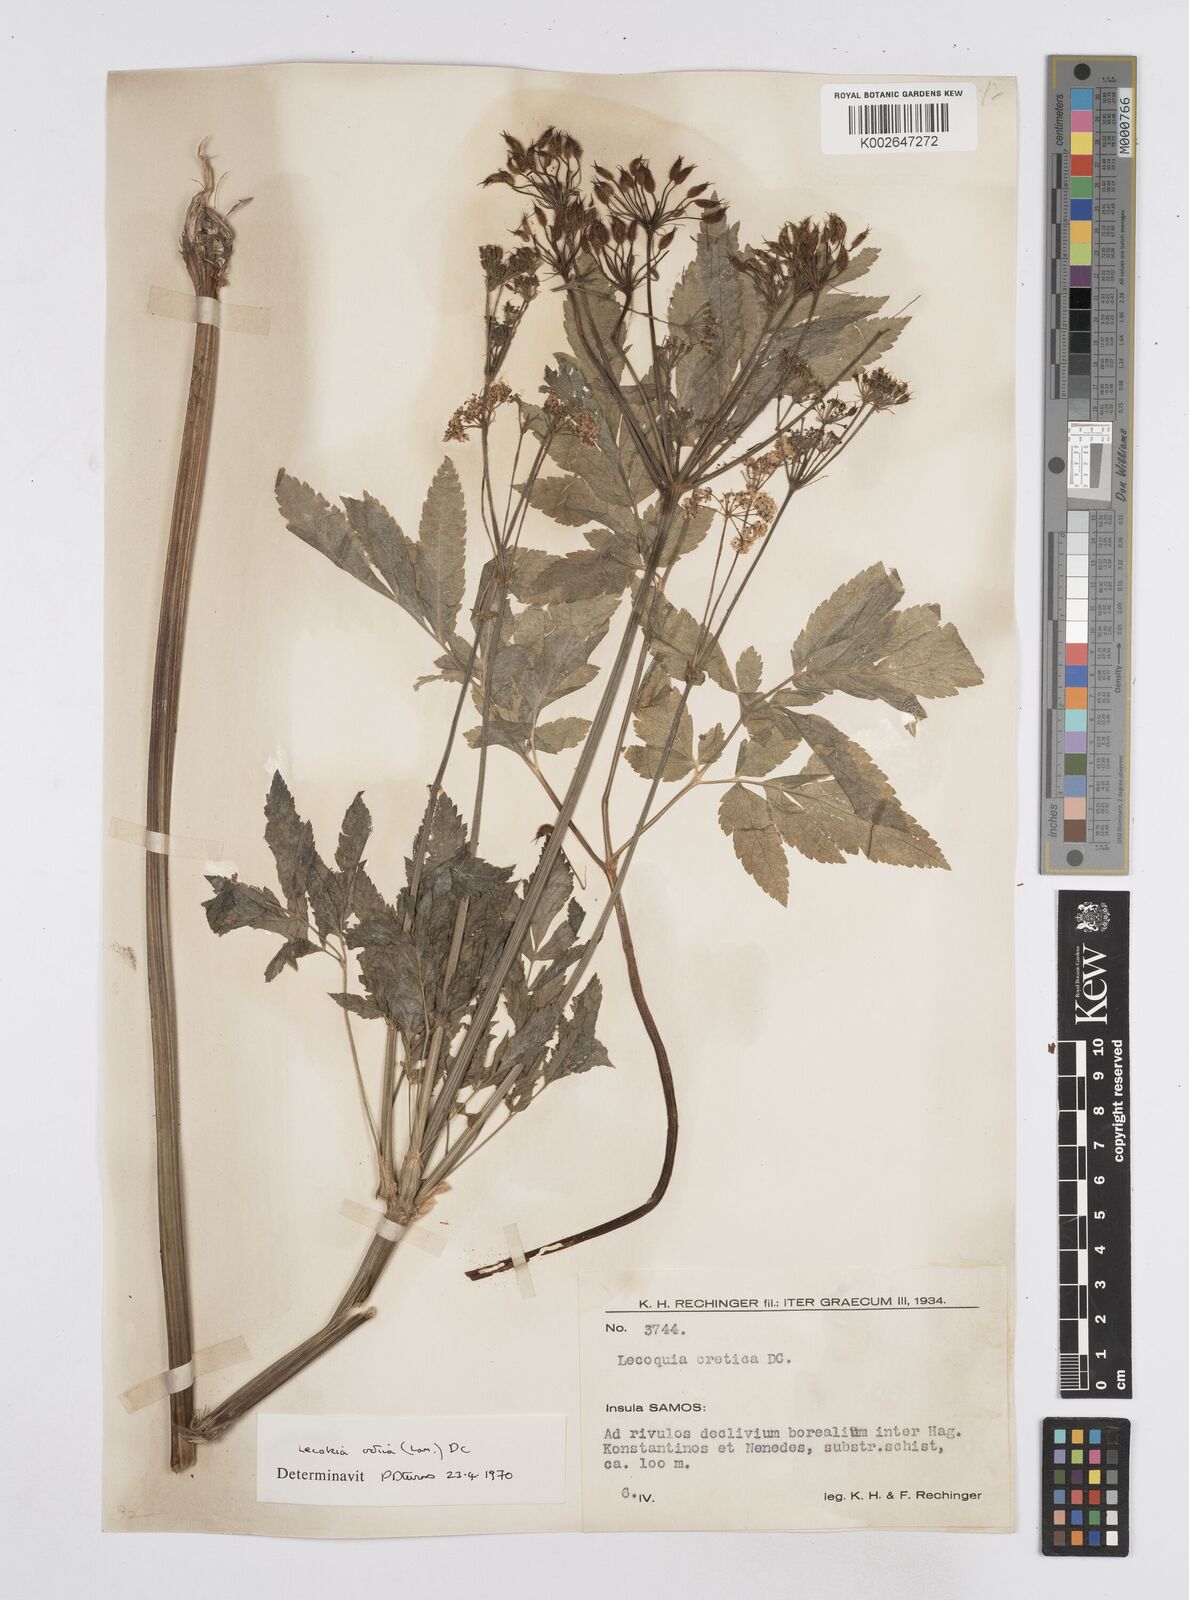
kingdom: Plantae
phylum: Tracheophyta
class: Magnoliopsida
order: Apiales
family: Apiaceae
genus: Lecokia
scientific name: Lecokia cretica
